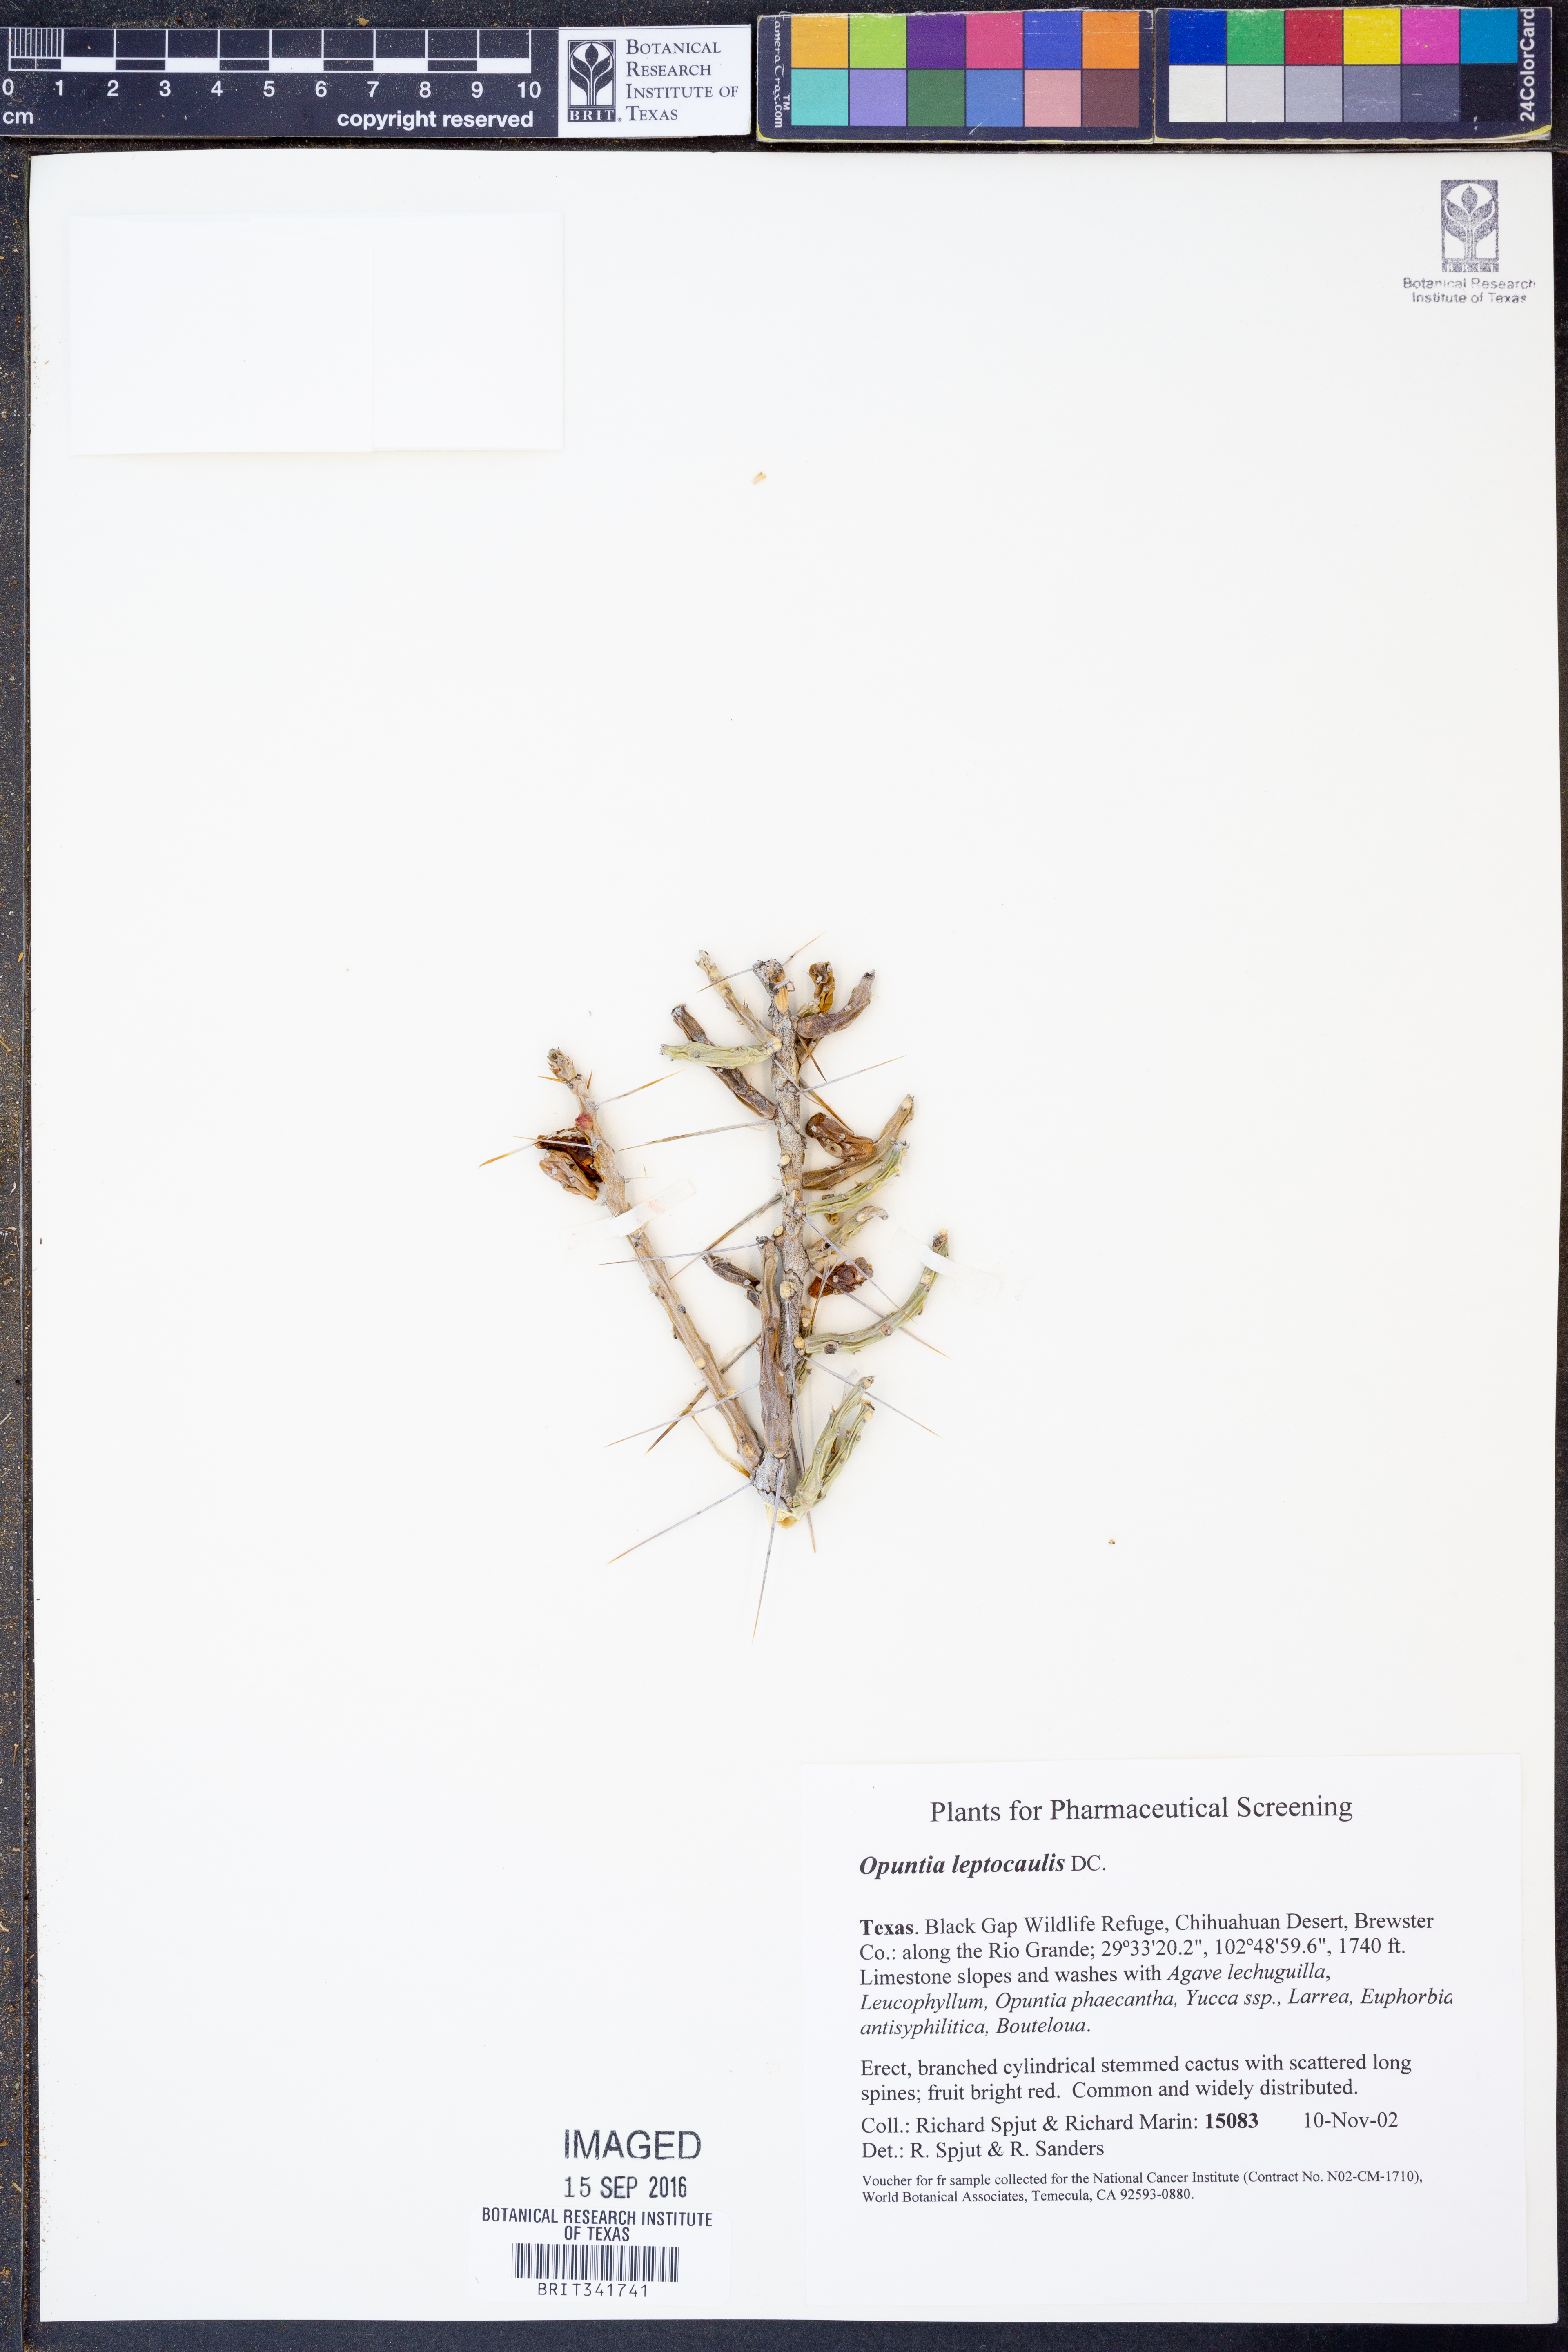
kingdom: Plantae
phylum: Tracheophyta
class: Magnoliopsida
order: Caryophyllales
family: Cactaceae
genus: Cylindropuntia
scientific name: Cylindropuntia leptocaulis
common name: Christmas cactus
